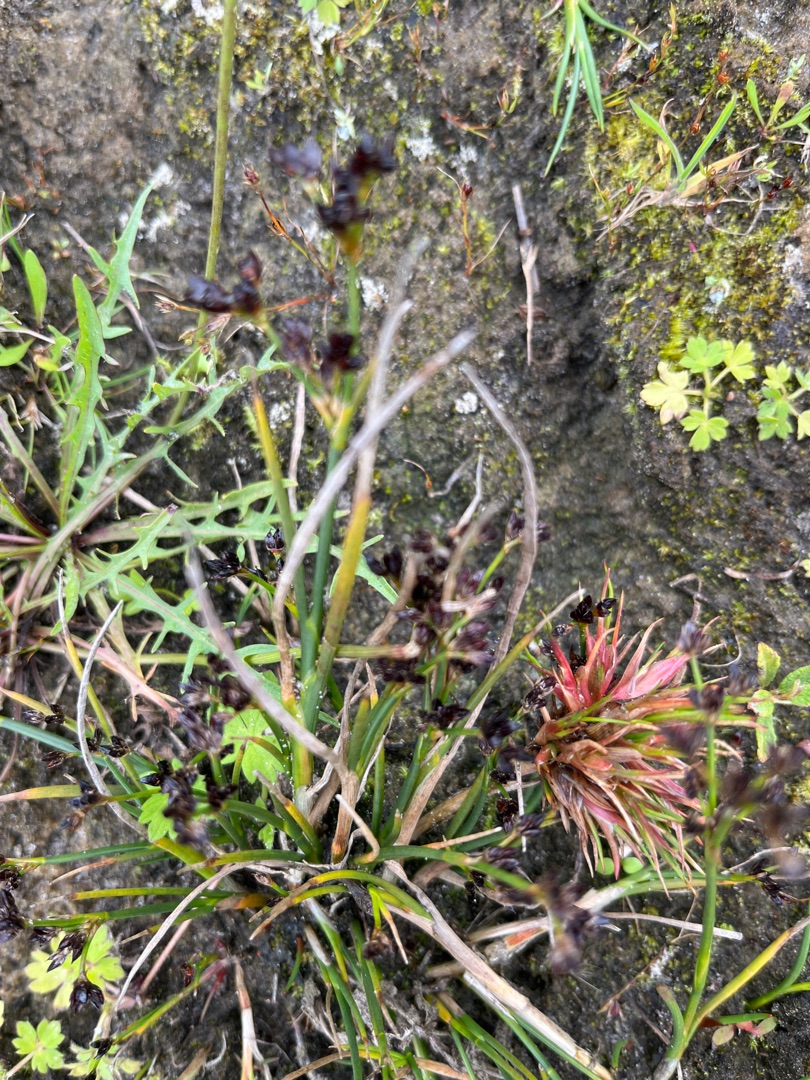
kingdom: Plantae
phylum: Tracheophyta
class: Liliopsida
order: Poales
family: Juncaceae
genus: Juncus
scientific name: Juncus articulatus
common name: Glanskapslet siv
